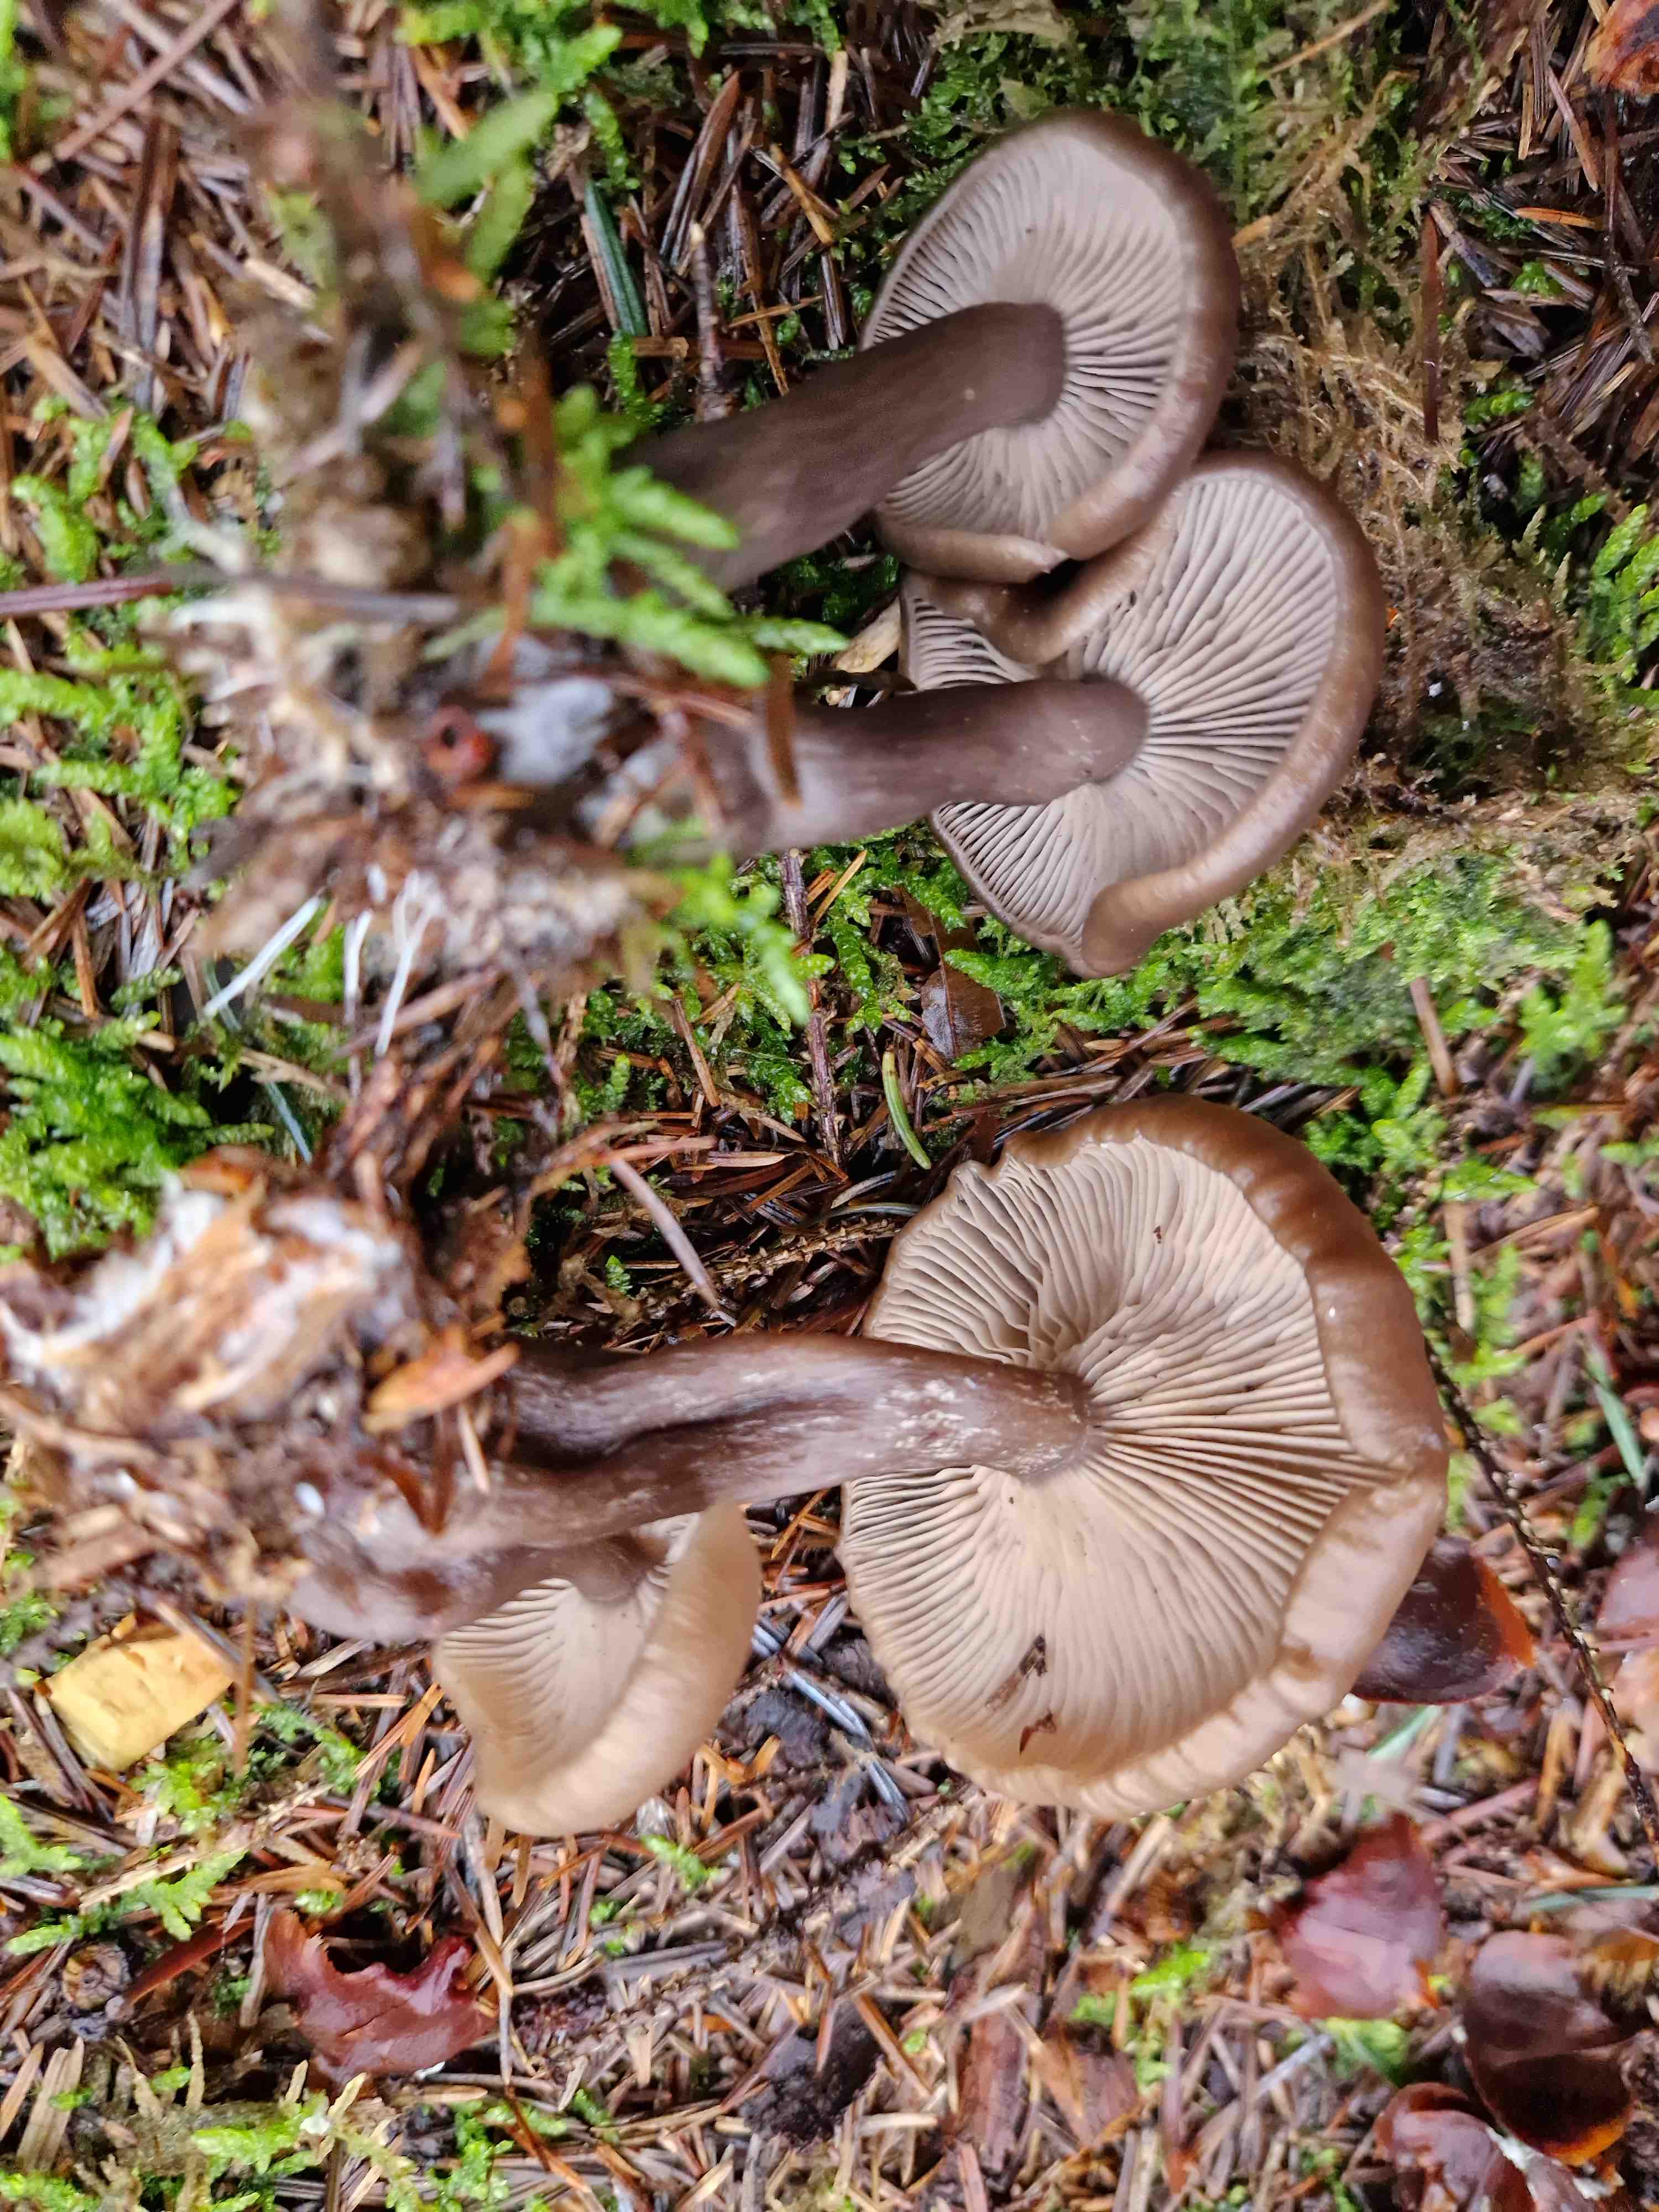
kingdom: Fungi
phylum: Basidiomycota
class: Agaricomycetes
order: Agaricales
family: Pseudoclitocybaceae
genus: Pseudoclitocybe
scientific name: Pseudoclitocybe cyathiformis
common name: almindelig bægertragthat
